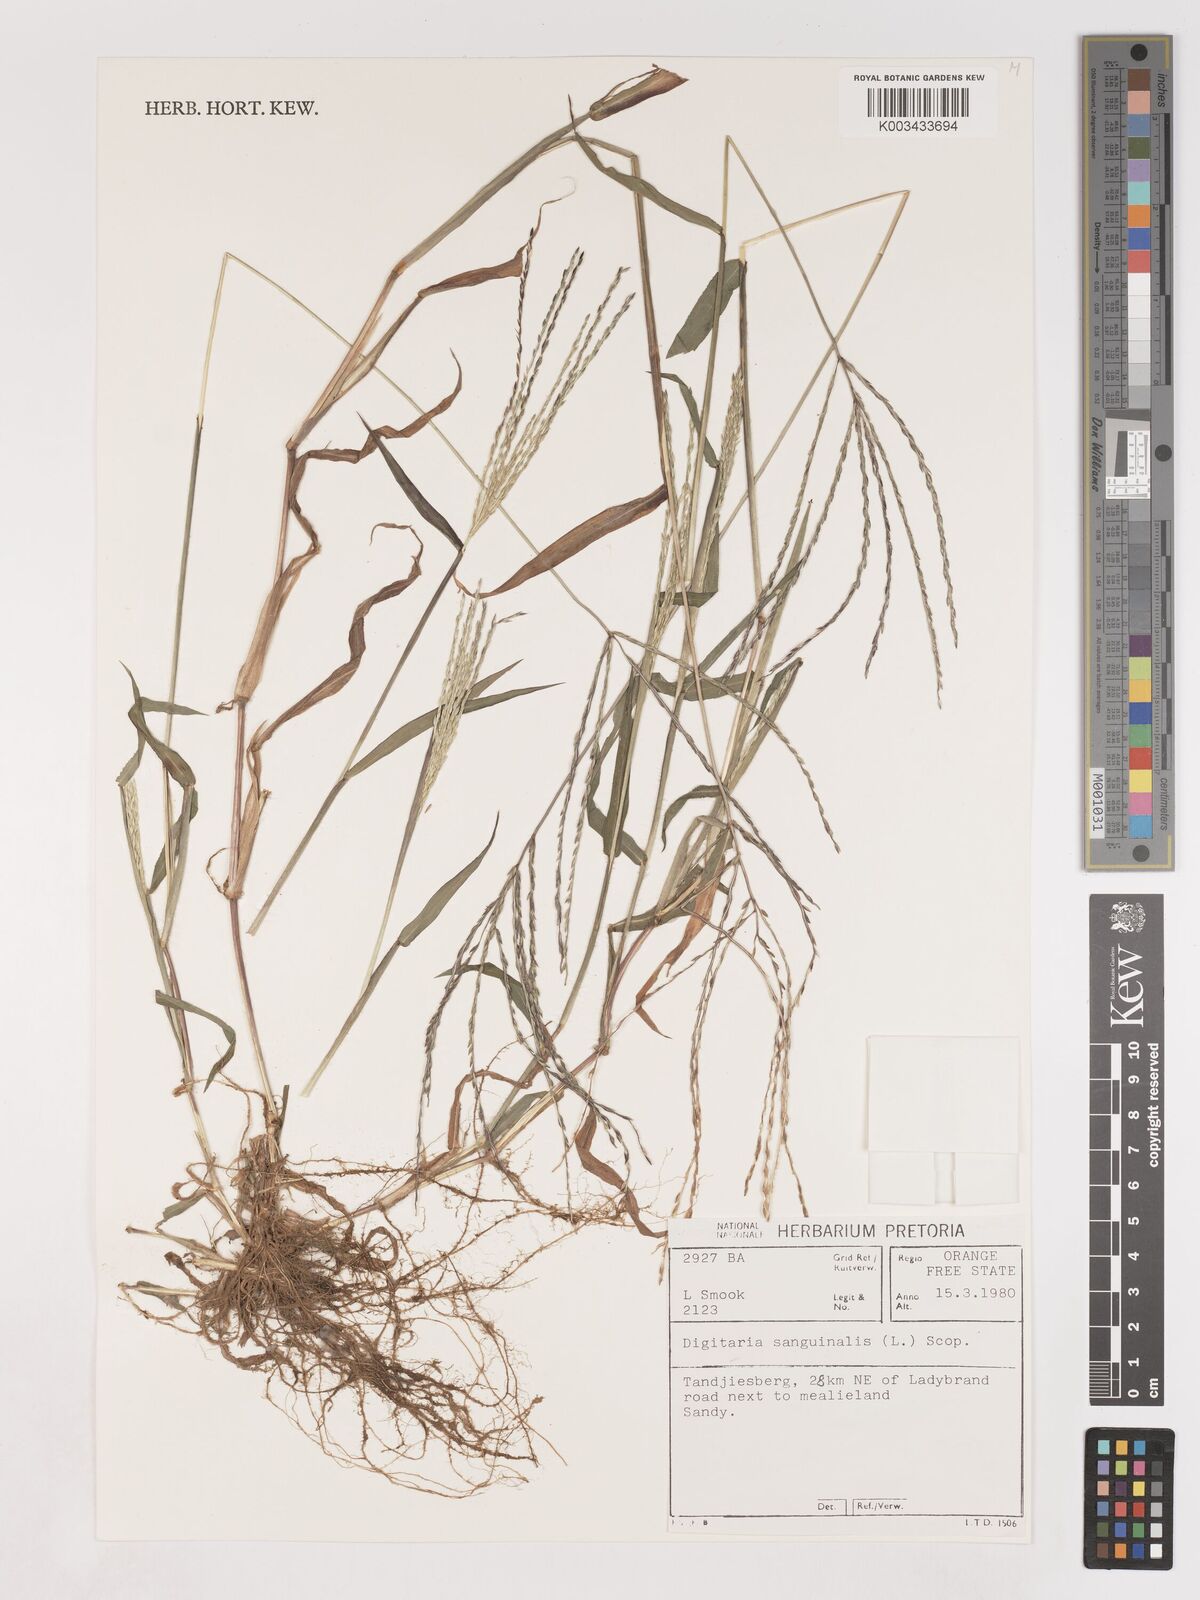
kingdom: Plantae
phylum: Tracheophyta
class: Liliopsida
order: Poales
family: Poaceae
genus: Digitaria
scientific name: Digitaria sanguinalis
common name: Hairy crabgrass
